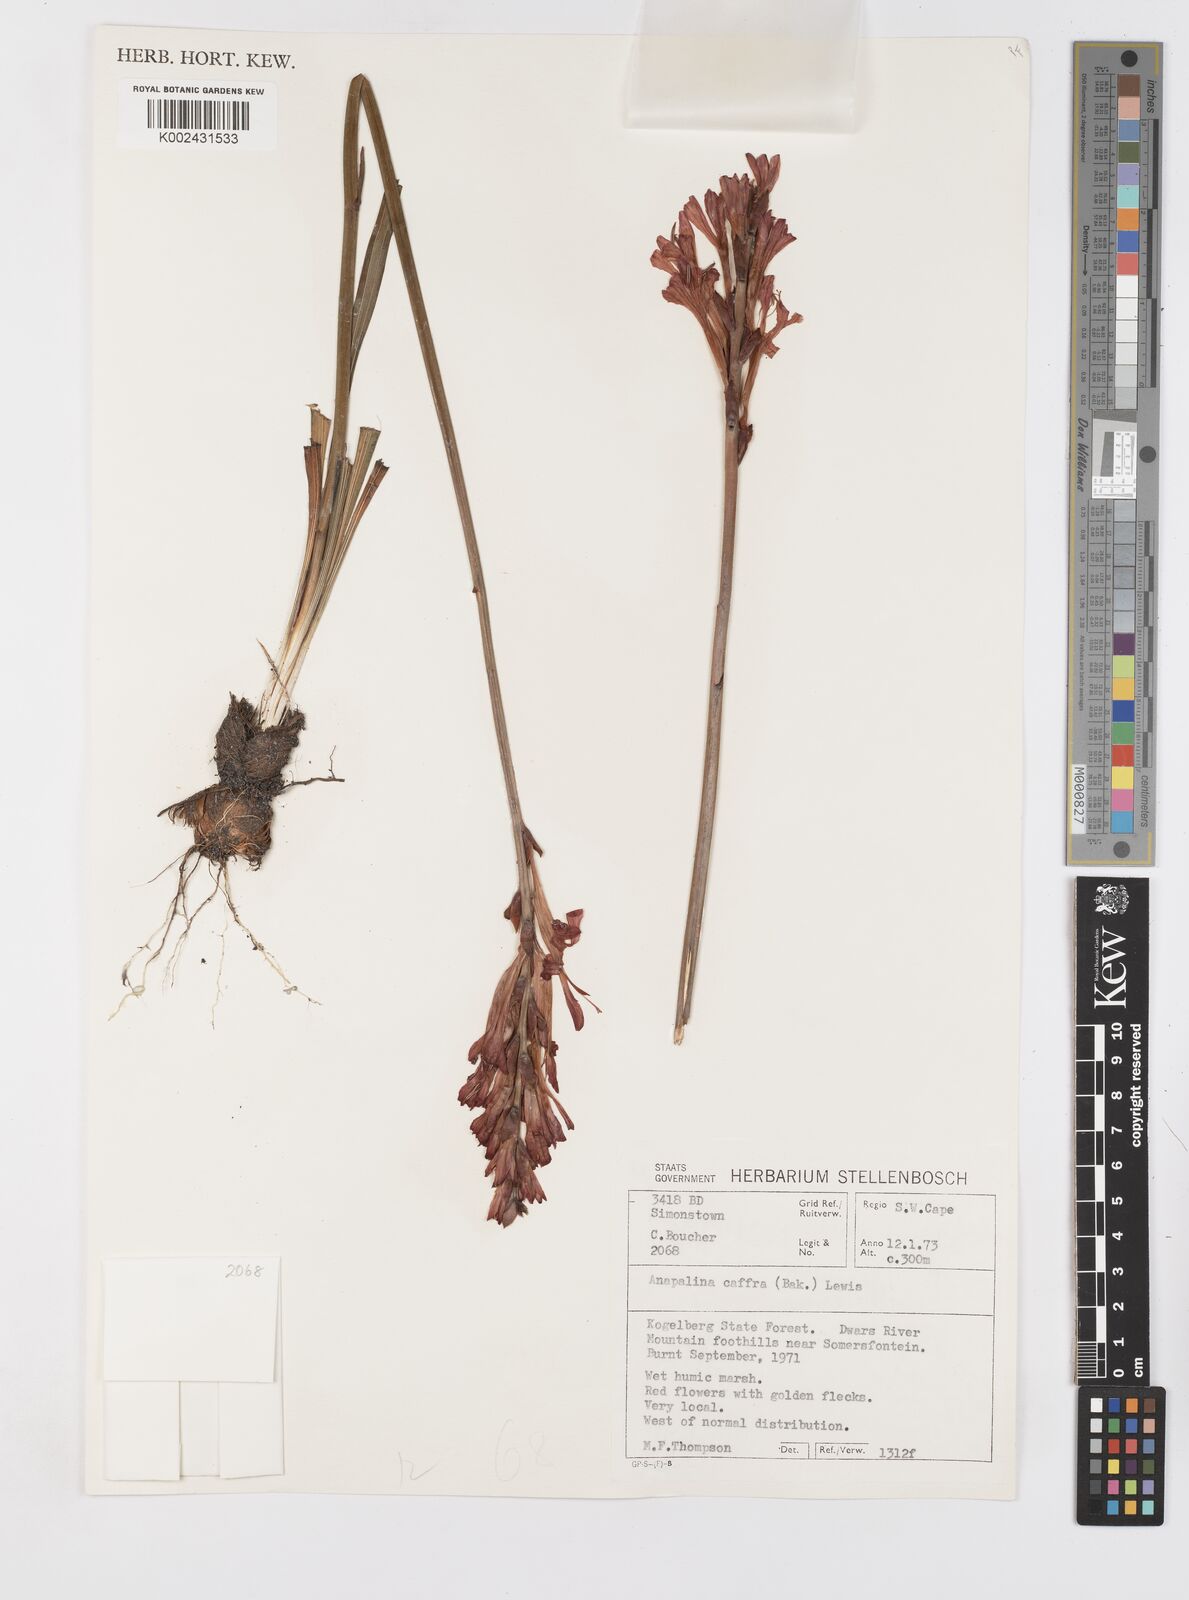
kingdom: Plantae
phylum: Tracheophyta
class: Liliopsida
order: Asparagales
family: Iridaceae
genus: Tritoniopsis
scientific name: Tritoniopsis caffra
